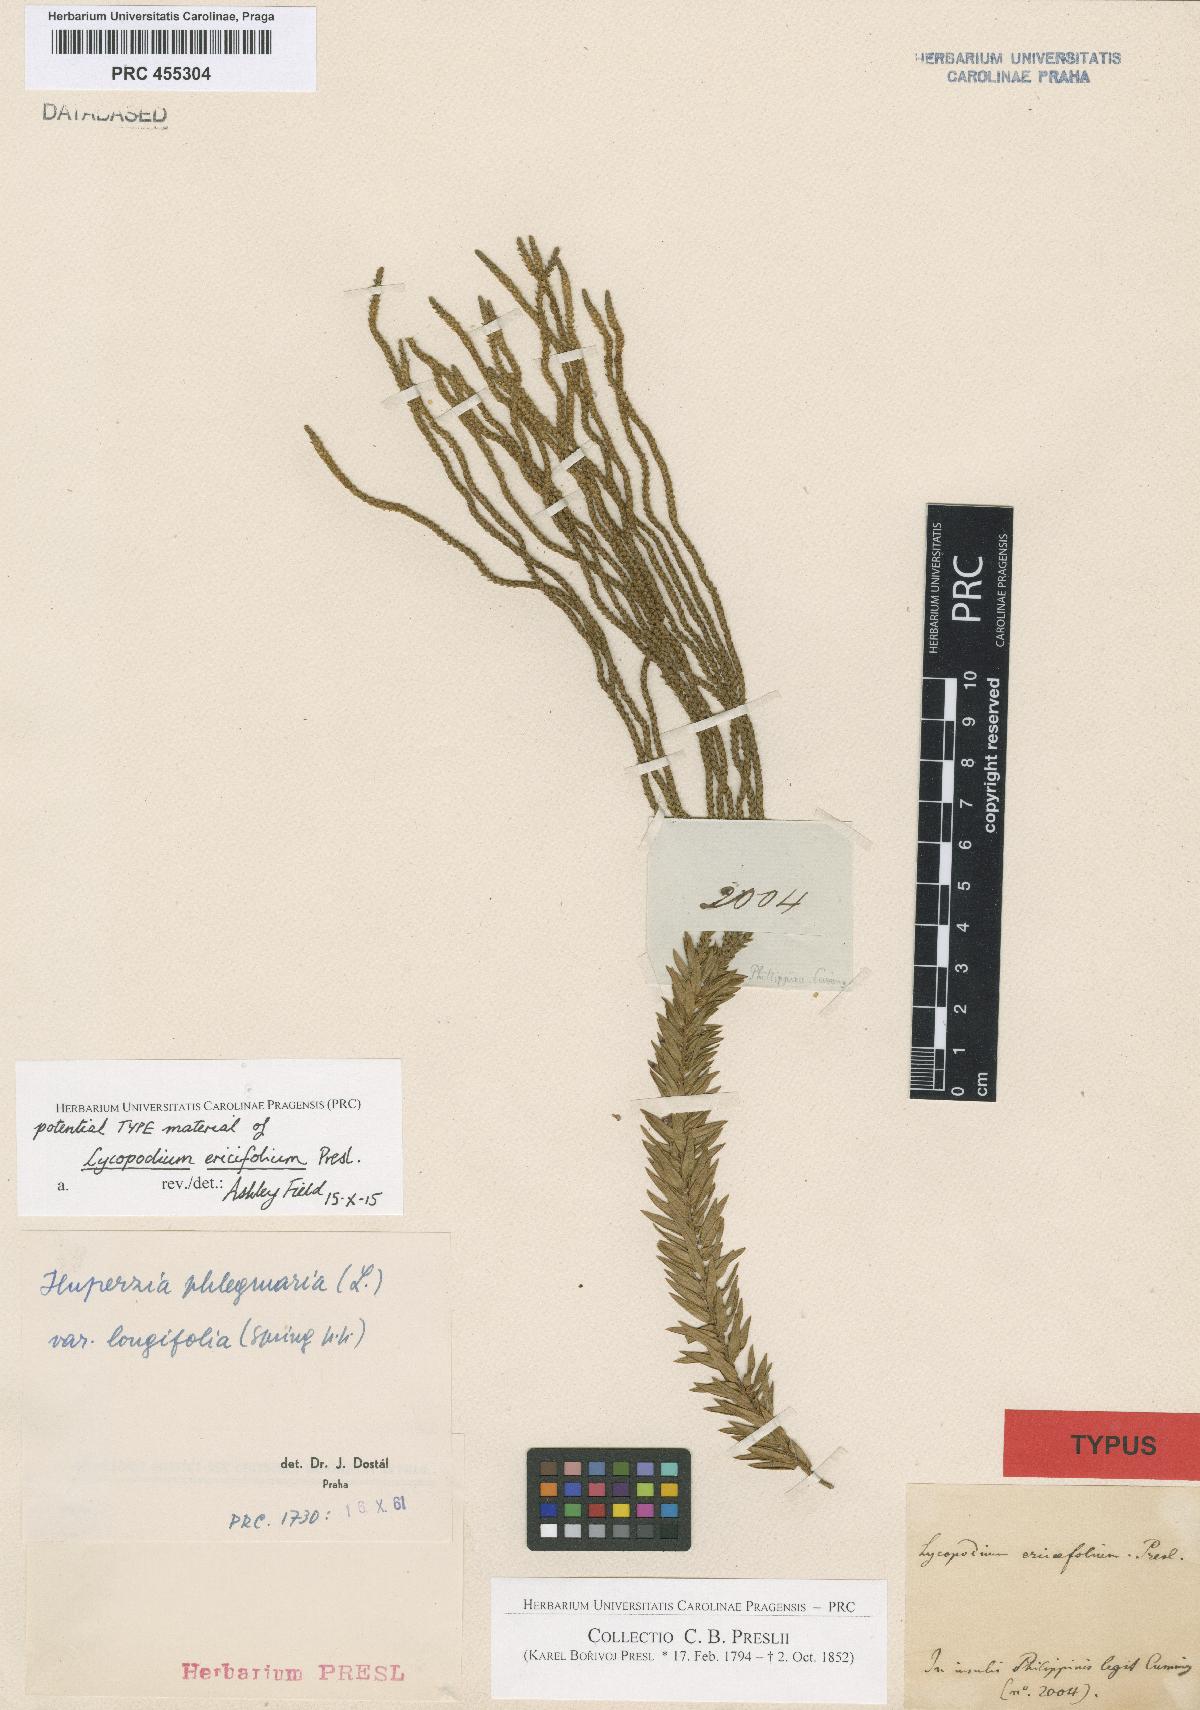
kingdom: Plantae
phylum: Tracheophyta
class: Lycopodiopsida
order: Lycopodiales
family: Lycopodiaceae
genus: Phlegmariurus
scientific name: Phlegmariurus ericifolius
